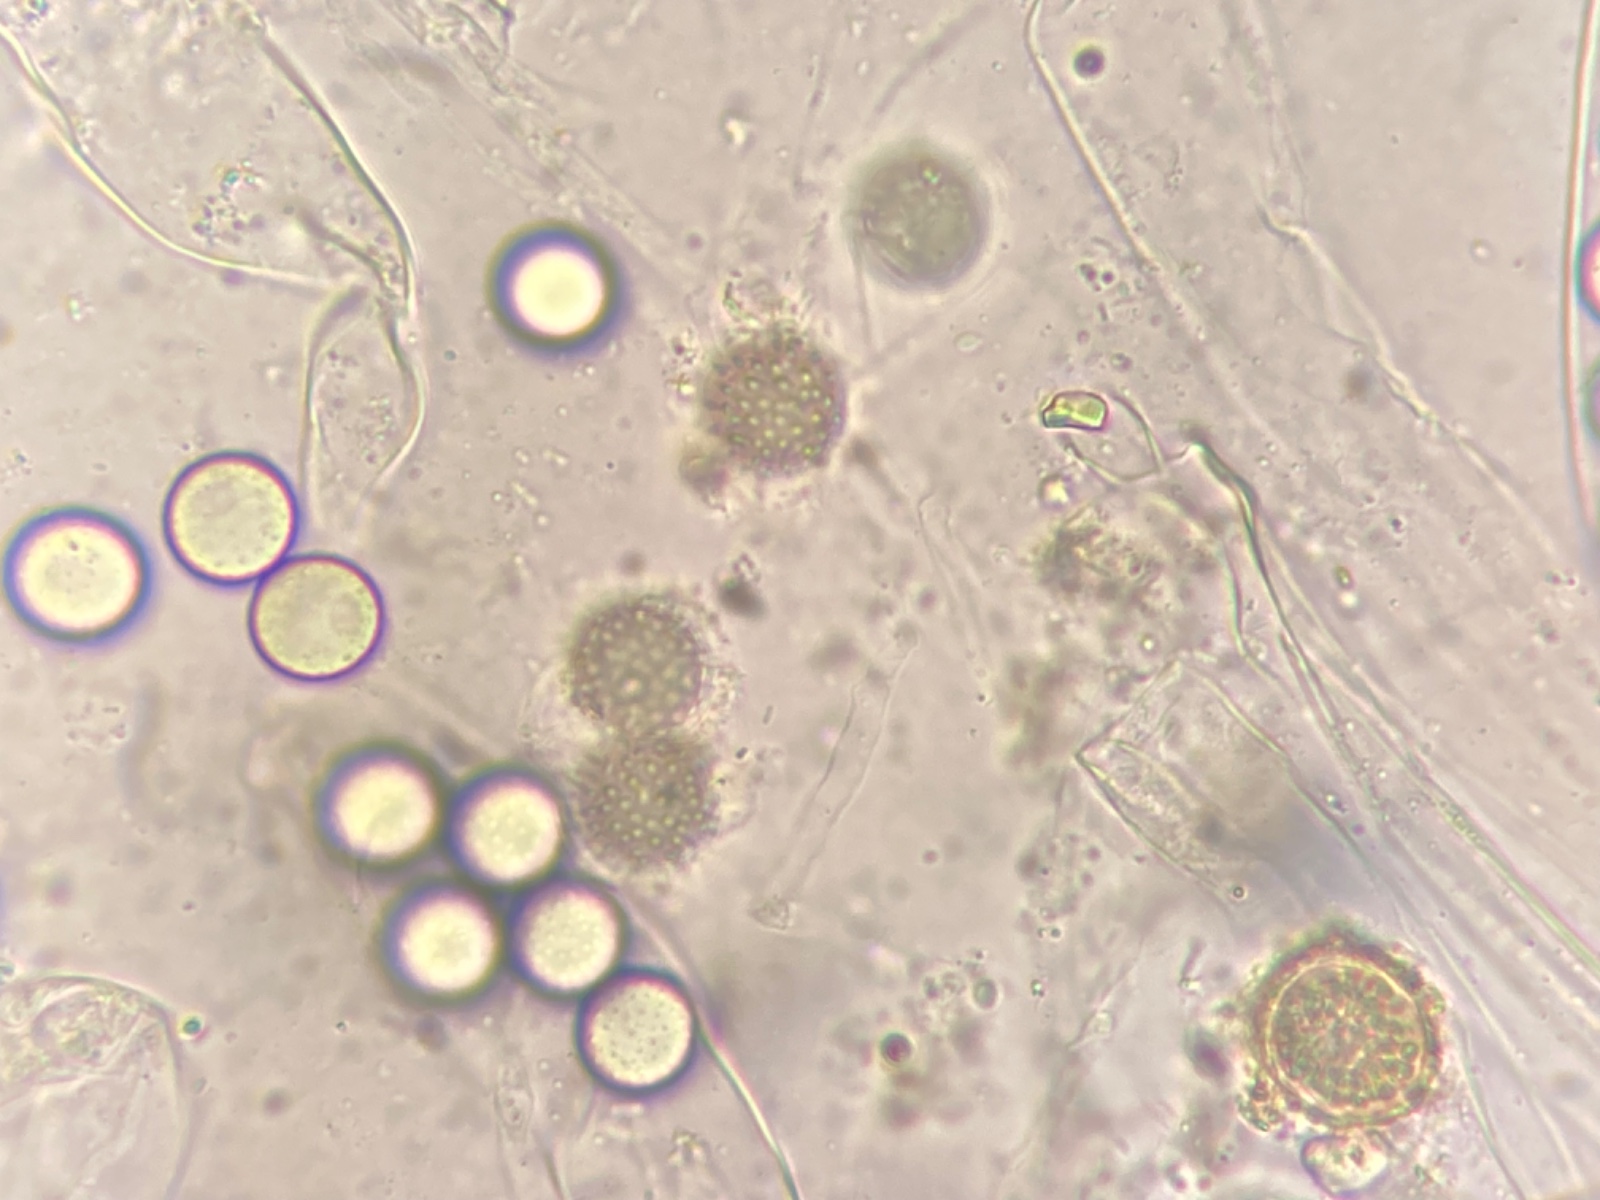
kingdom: Fungi
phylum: Ascomycota
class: Pezizomycetes
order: Pezizales
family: Ascobolaceae
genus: Ascobolus
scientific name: Ascobolus brassicae
